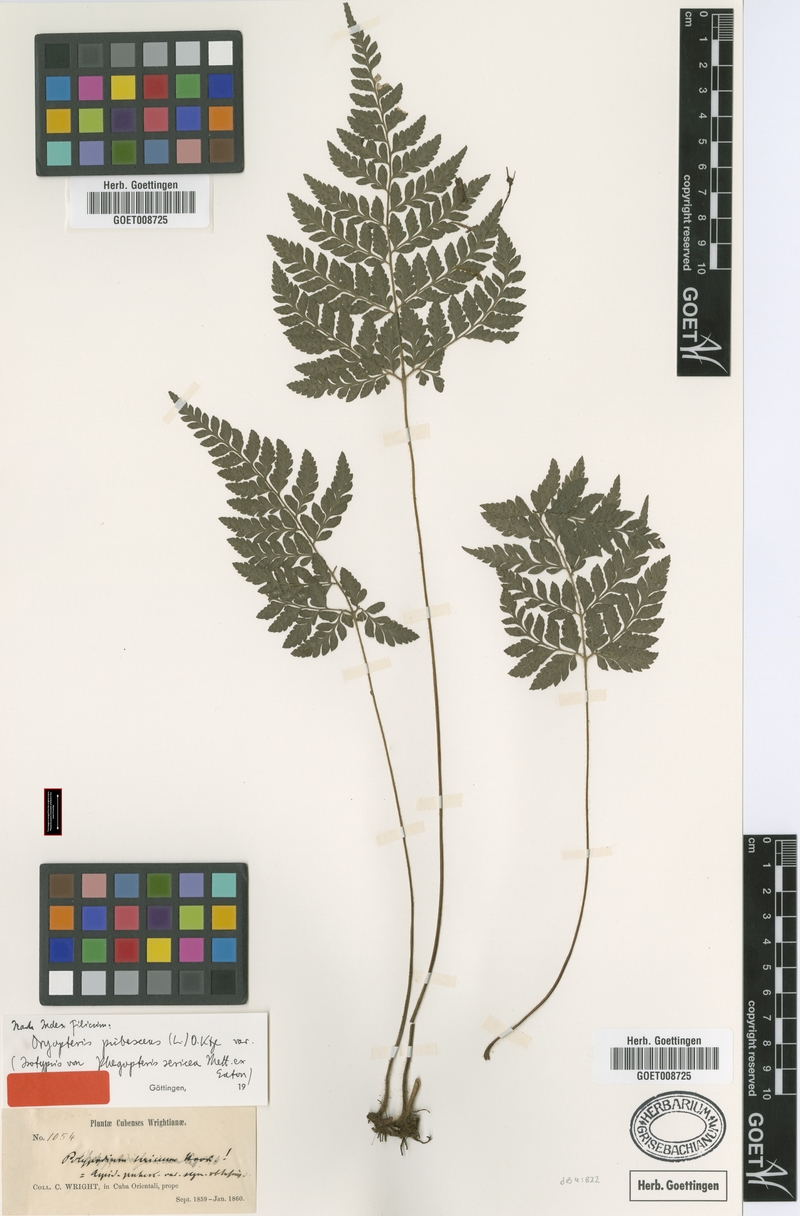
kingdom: Plantae
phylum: Tracheophyta
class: Polypodiopsida
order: Polypodiales
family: Dryopteridaceae
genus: Polystichopsis
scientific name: Polystichopsis pubescens
